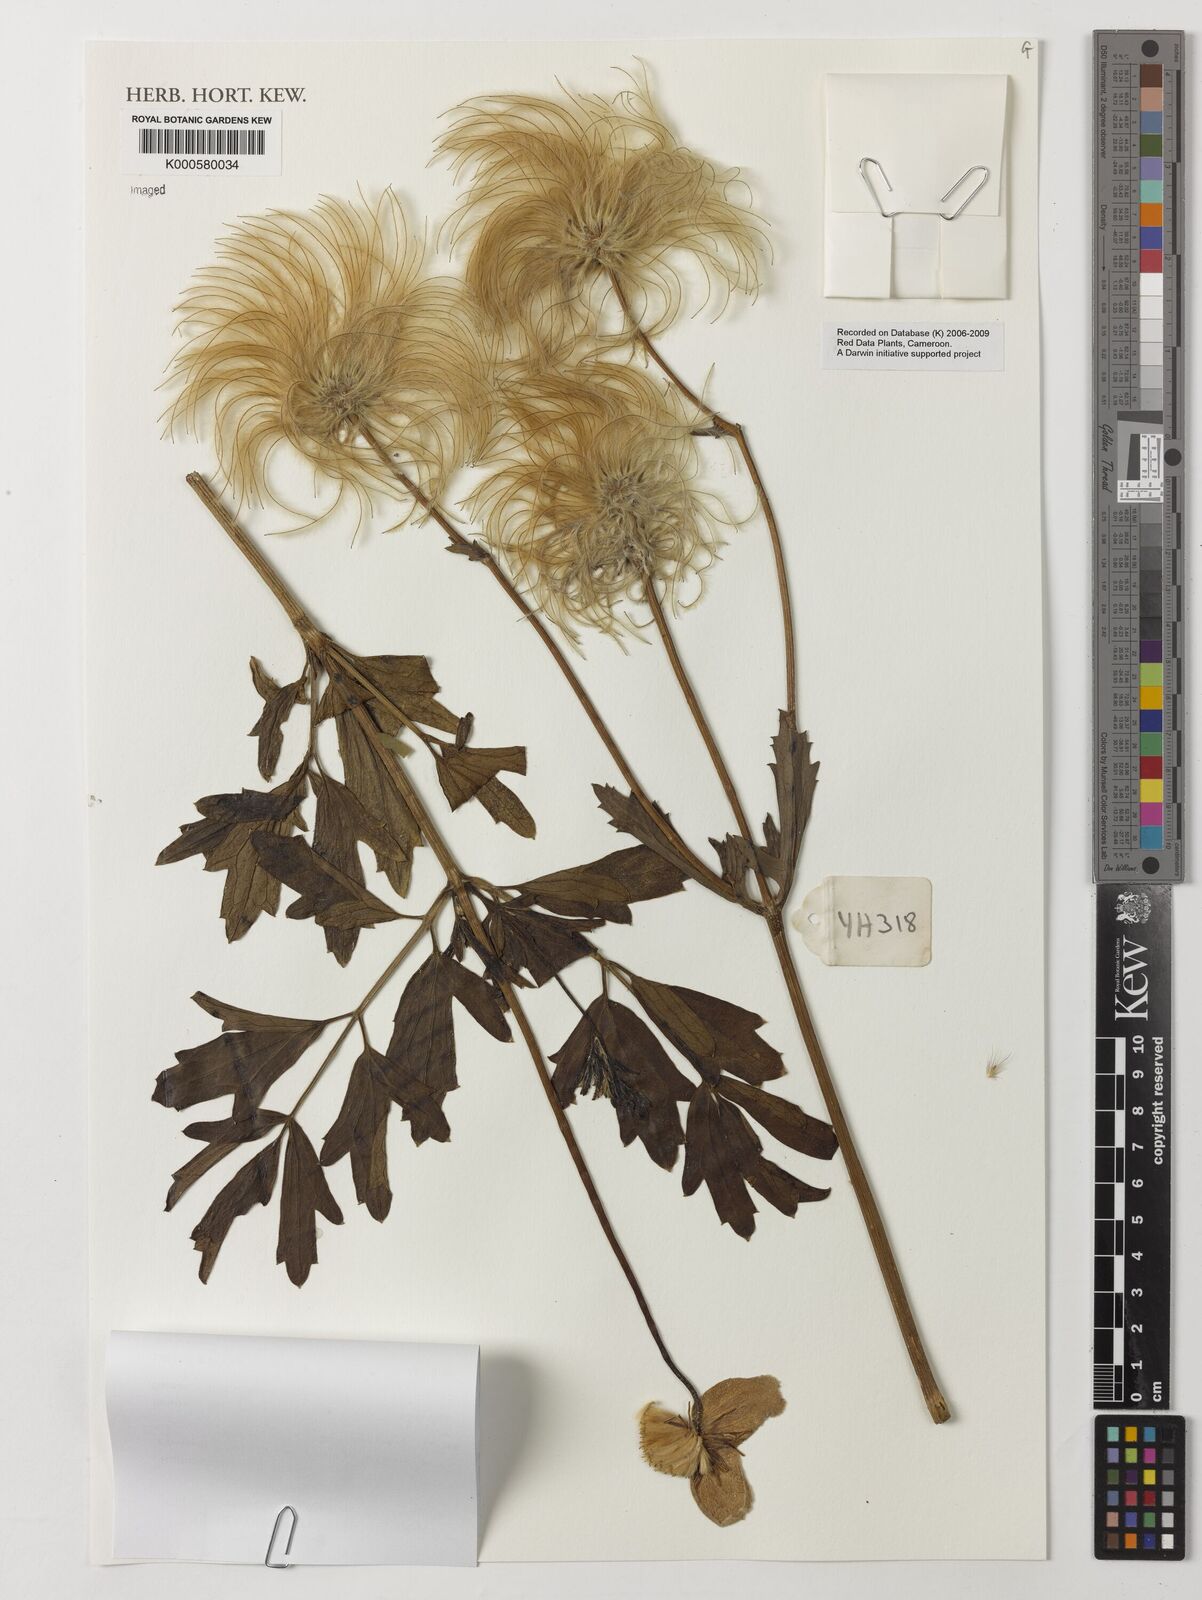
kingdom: Plantae
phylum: Tracheophyta
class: Magnoliopsida
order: Ranunculales
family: Ranunculaceae
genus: Clematis
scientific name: Clematis villosa
